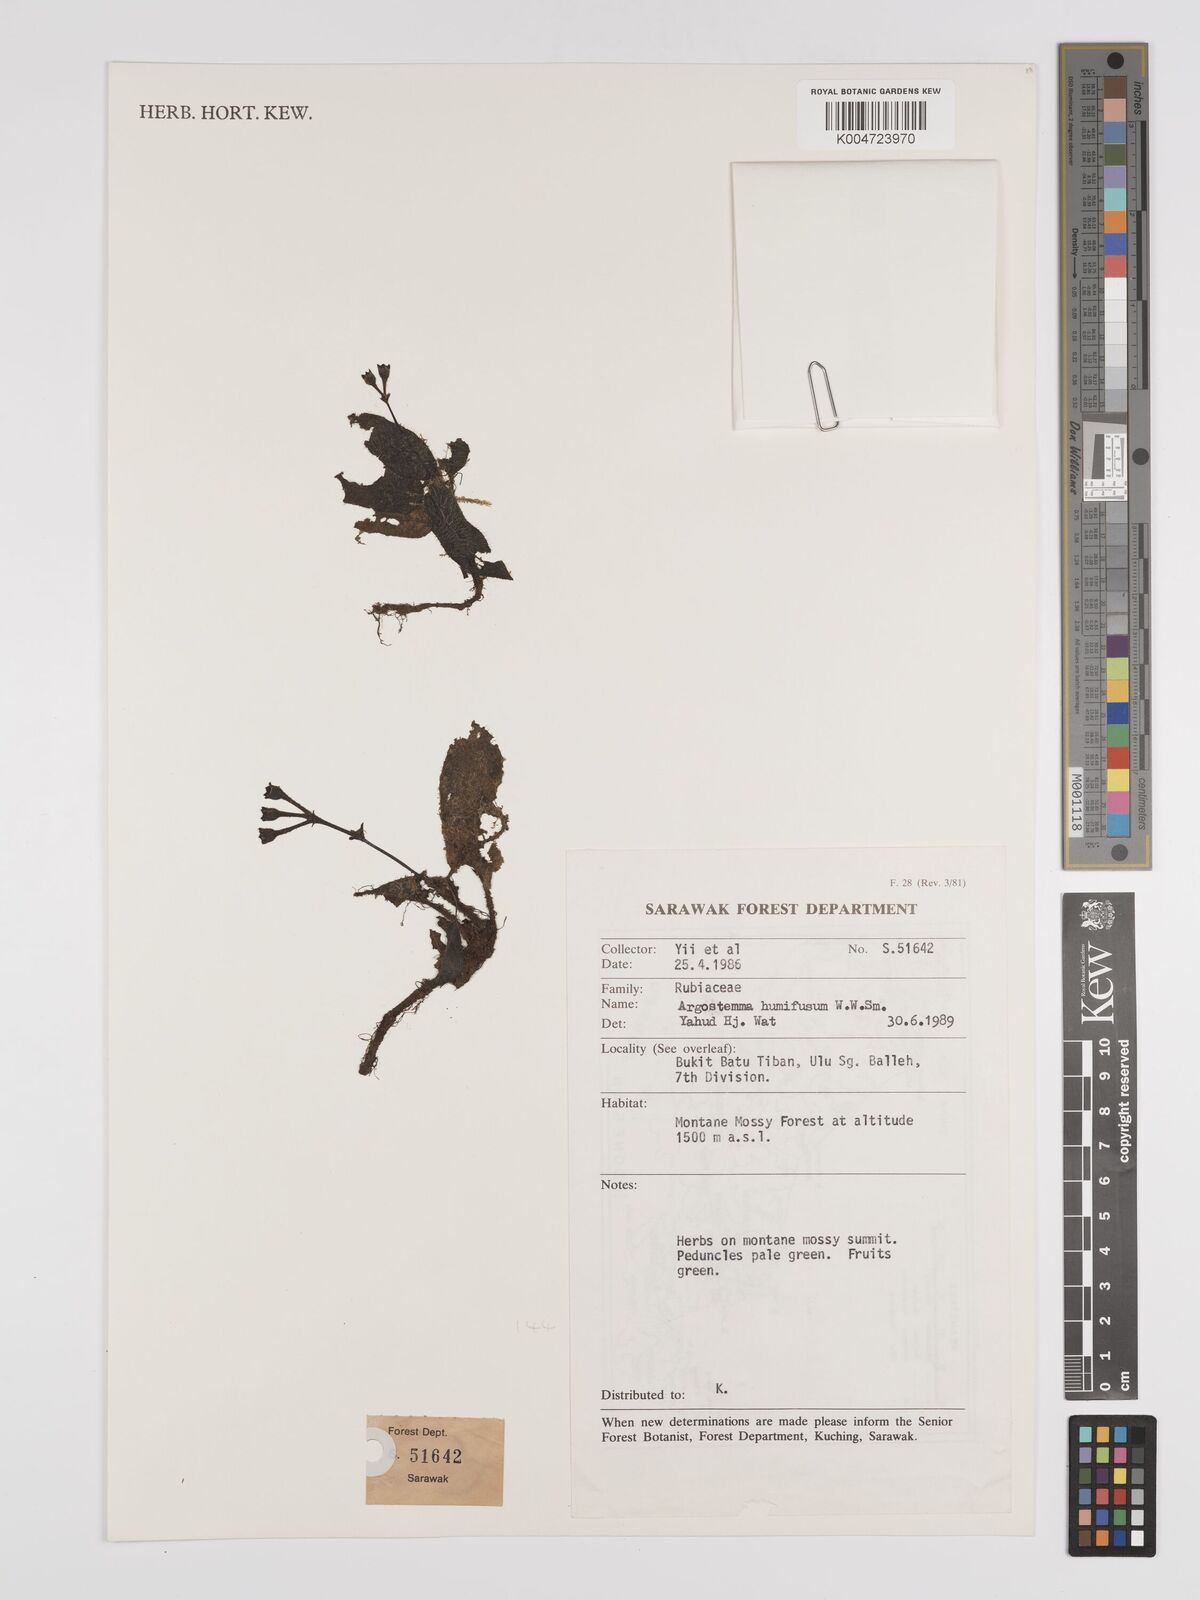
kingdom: Plantae
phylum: Tracheophyta
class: Magnoliopsida
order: Gentianales
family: Rubiaceae
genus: Argostemma
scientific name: Argostemma humifusum
